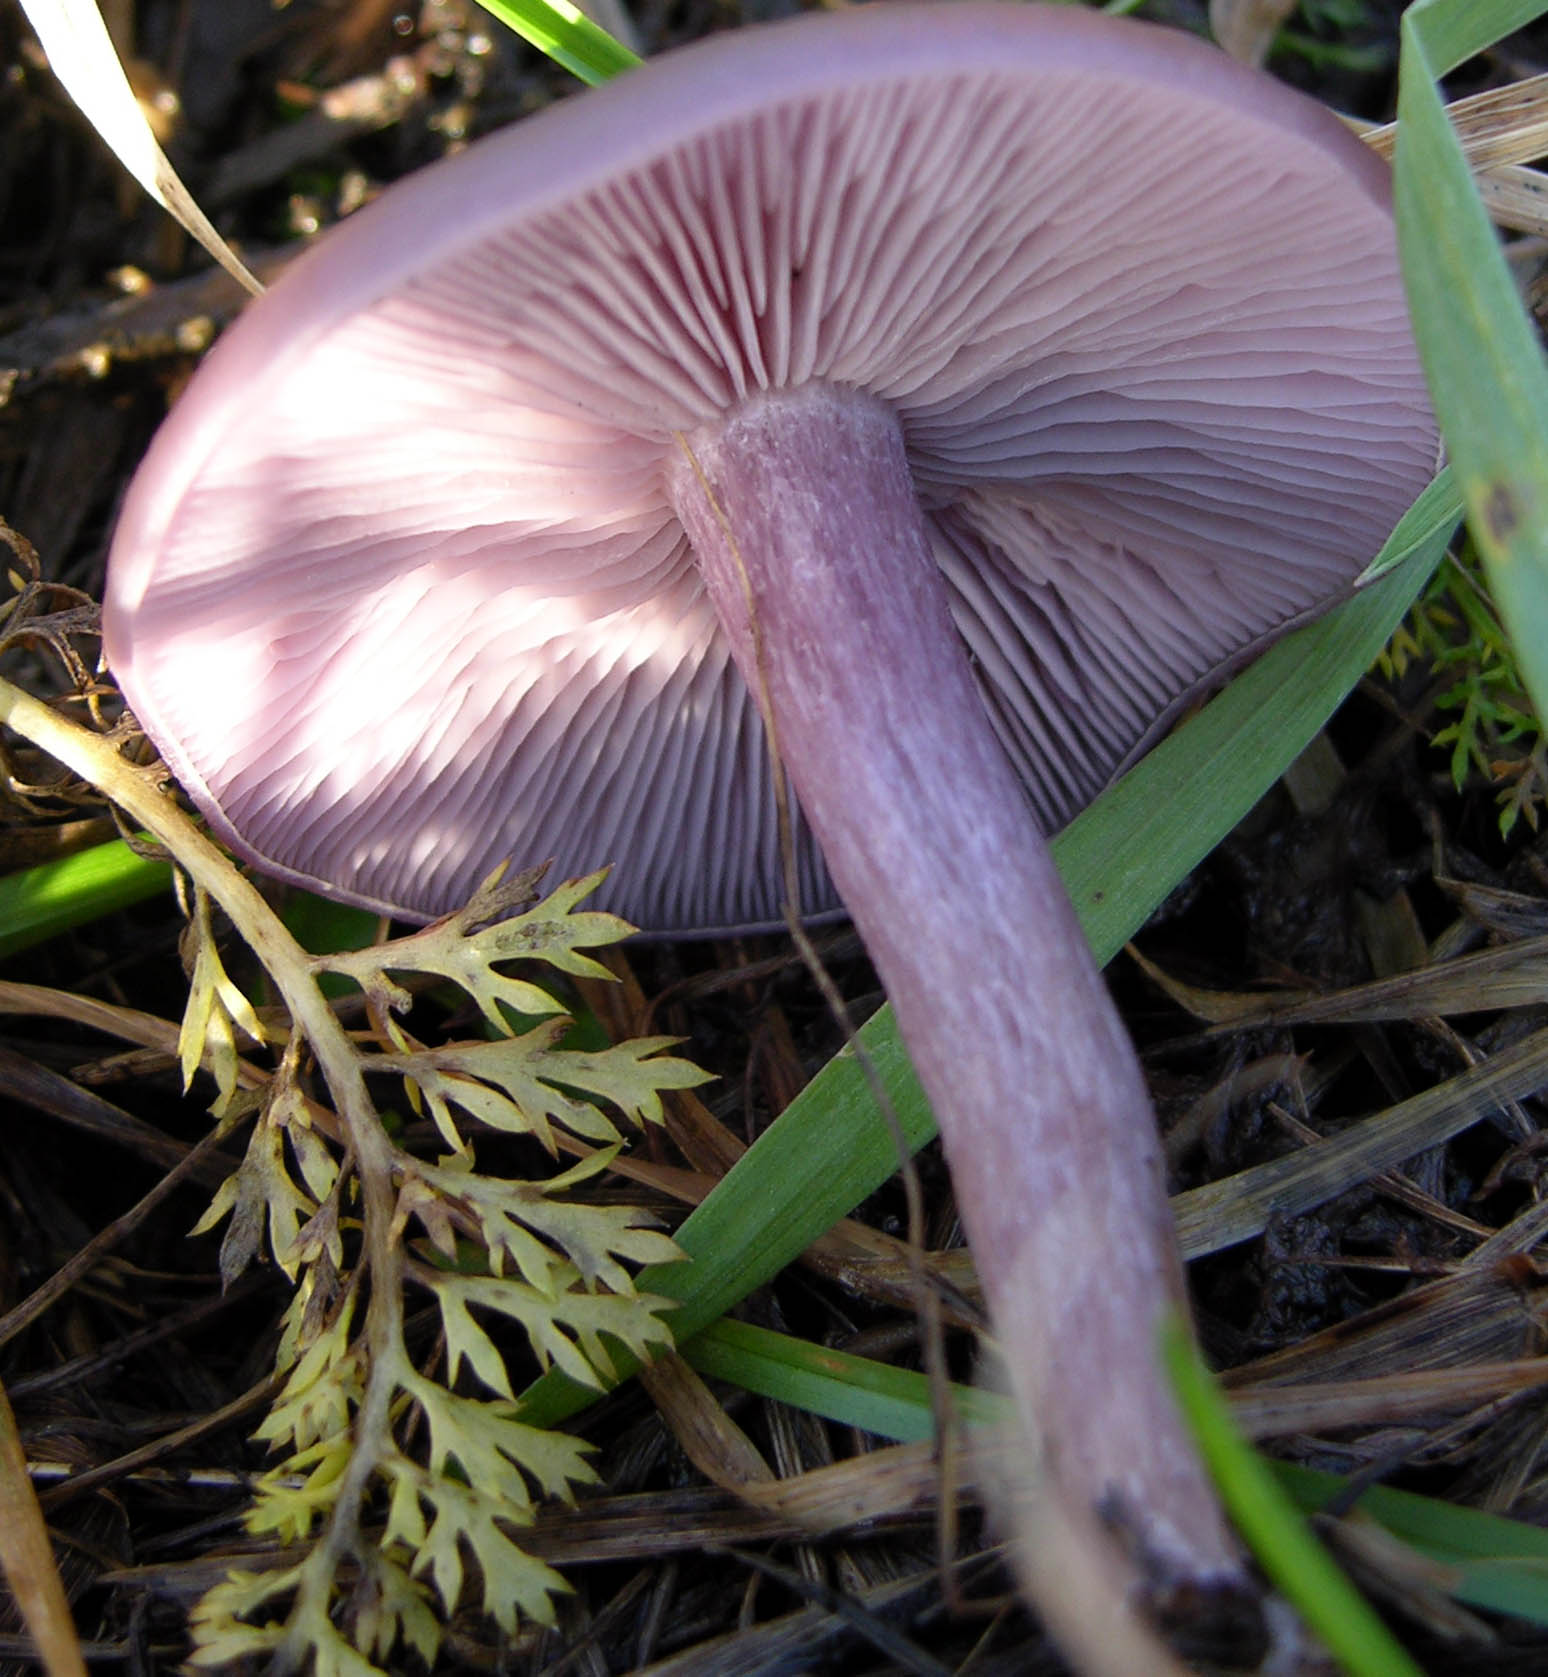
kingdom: Fungi
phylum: Basidiomycota
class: Agaricomycetes
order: Agaricales
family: Tricholomataceae
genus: Lepista
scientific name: Lepista nuda
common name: violet hekseringshat
